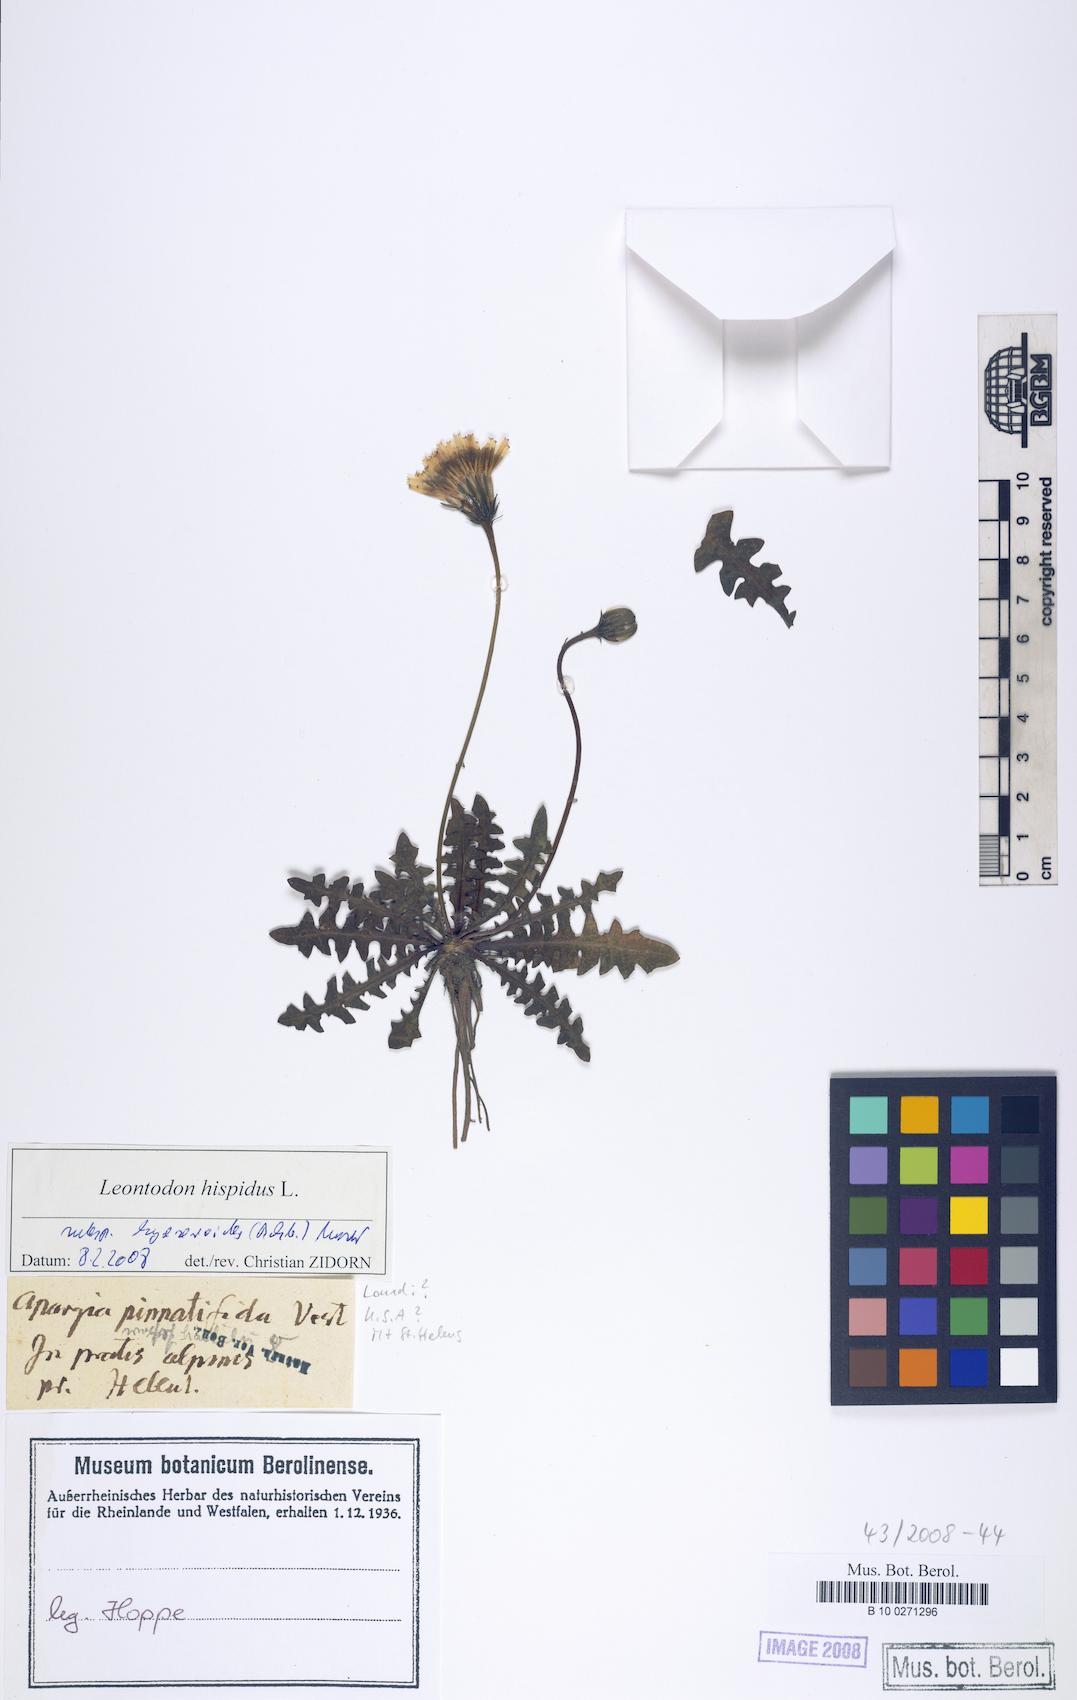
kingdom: Plantae
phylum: Tracheophyta
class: Magnoliopsida
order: Asterales
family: Asteraceae
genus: Leontodon
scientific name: Leontodon hyoseroides
